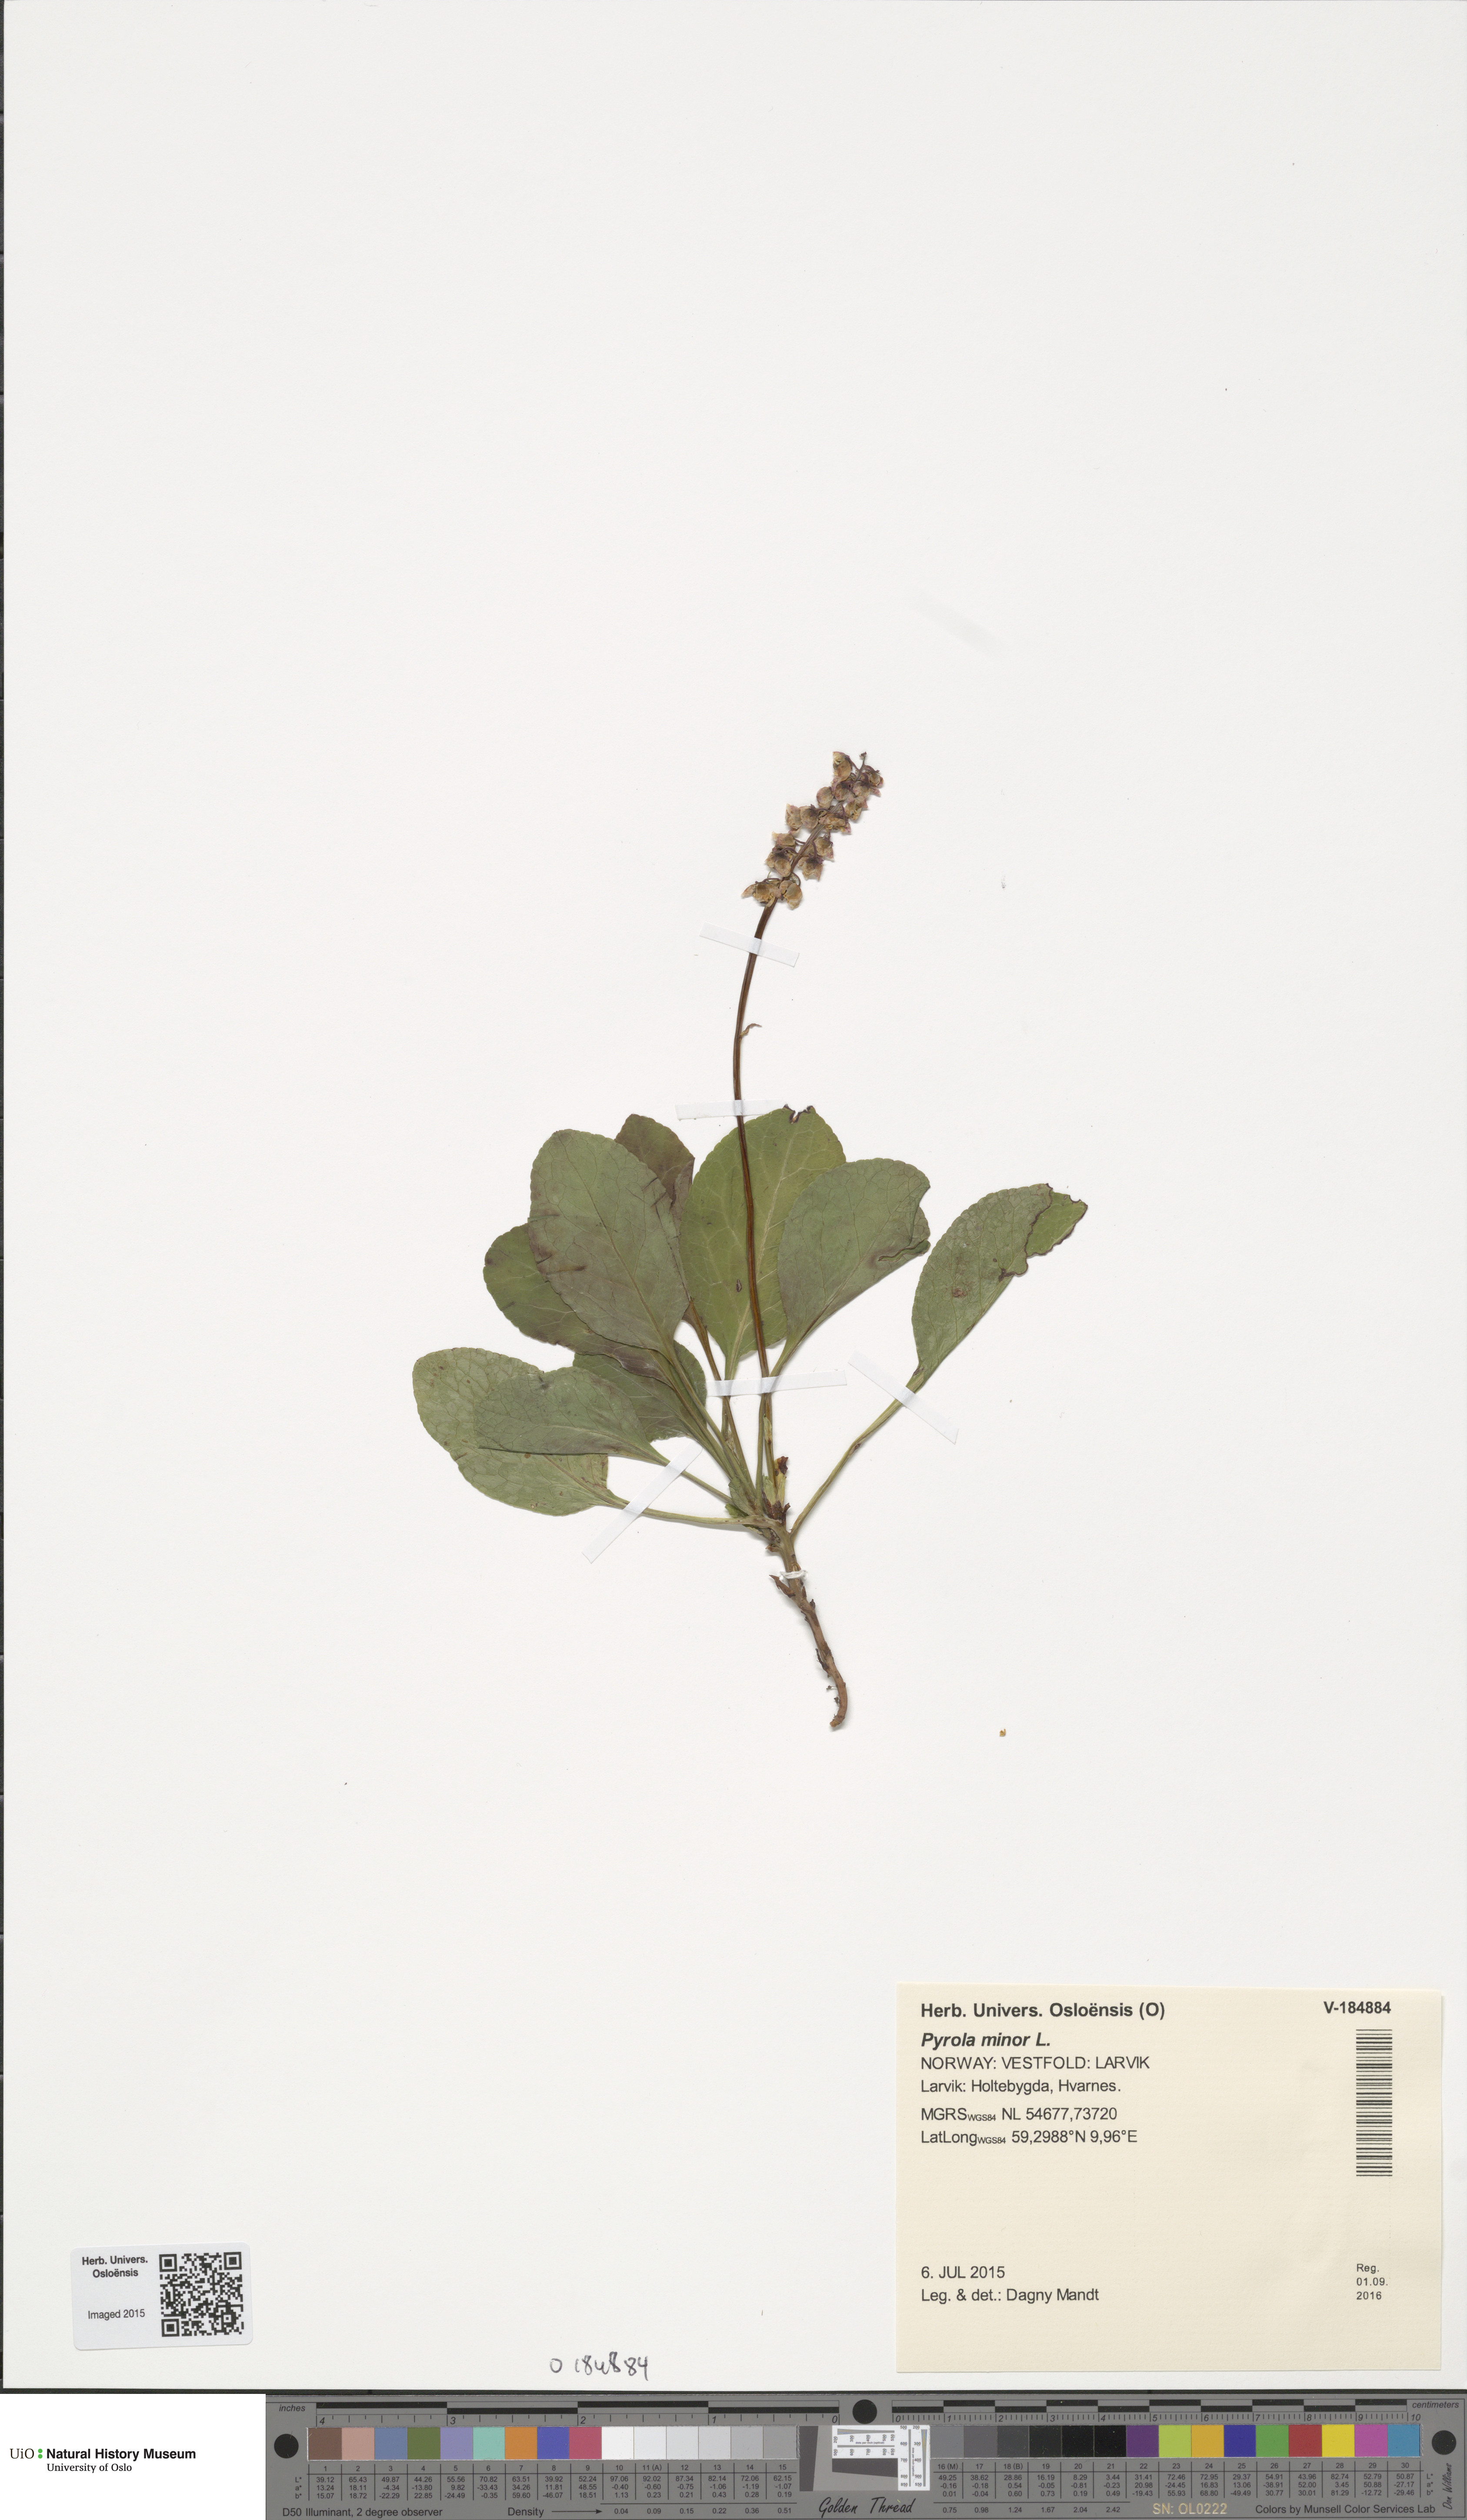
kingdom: Plantae
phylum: Tracheophyta
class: Magnoliopsida
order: Ericales
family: Ericaceae
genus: Pyrola
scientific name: Pyrola minor
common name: Common wintergreen
